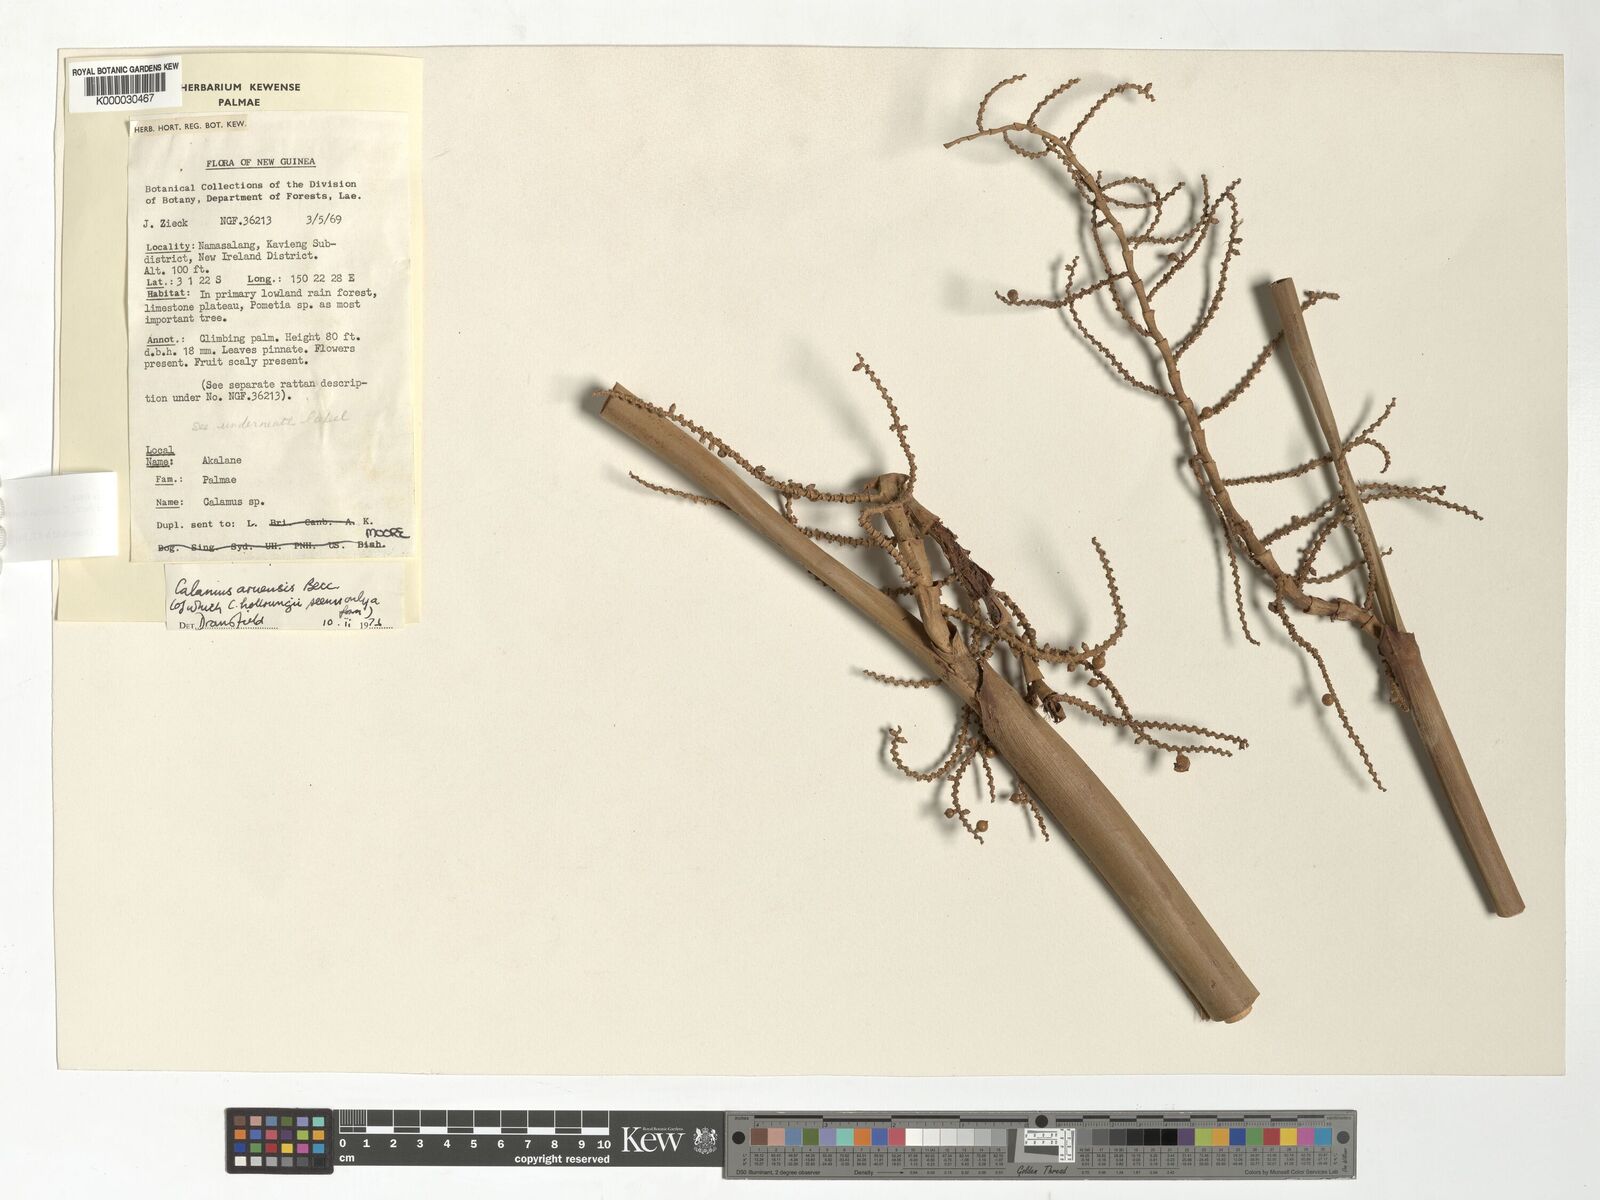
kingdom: Plantae
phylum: Tracheophyta
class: Liliopsida
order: Arecales
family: Arecaceae
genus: Calamus
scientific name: Calamus aruensis
